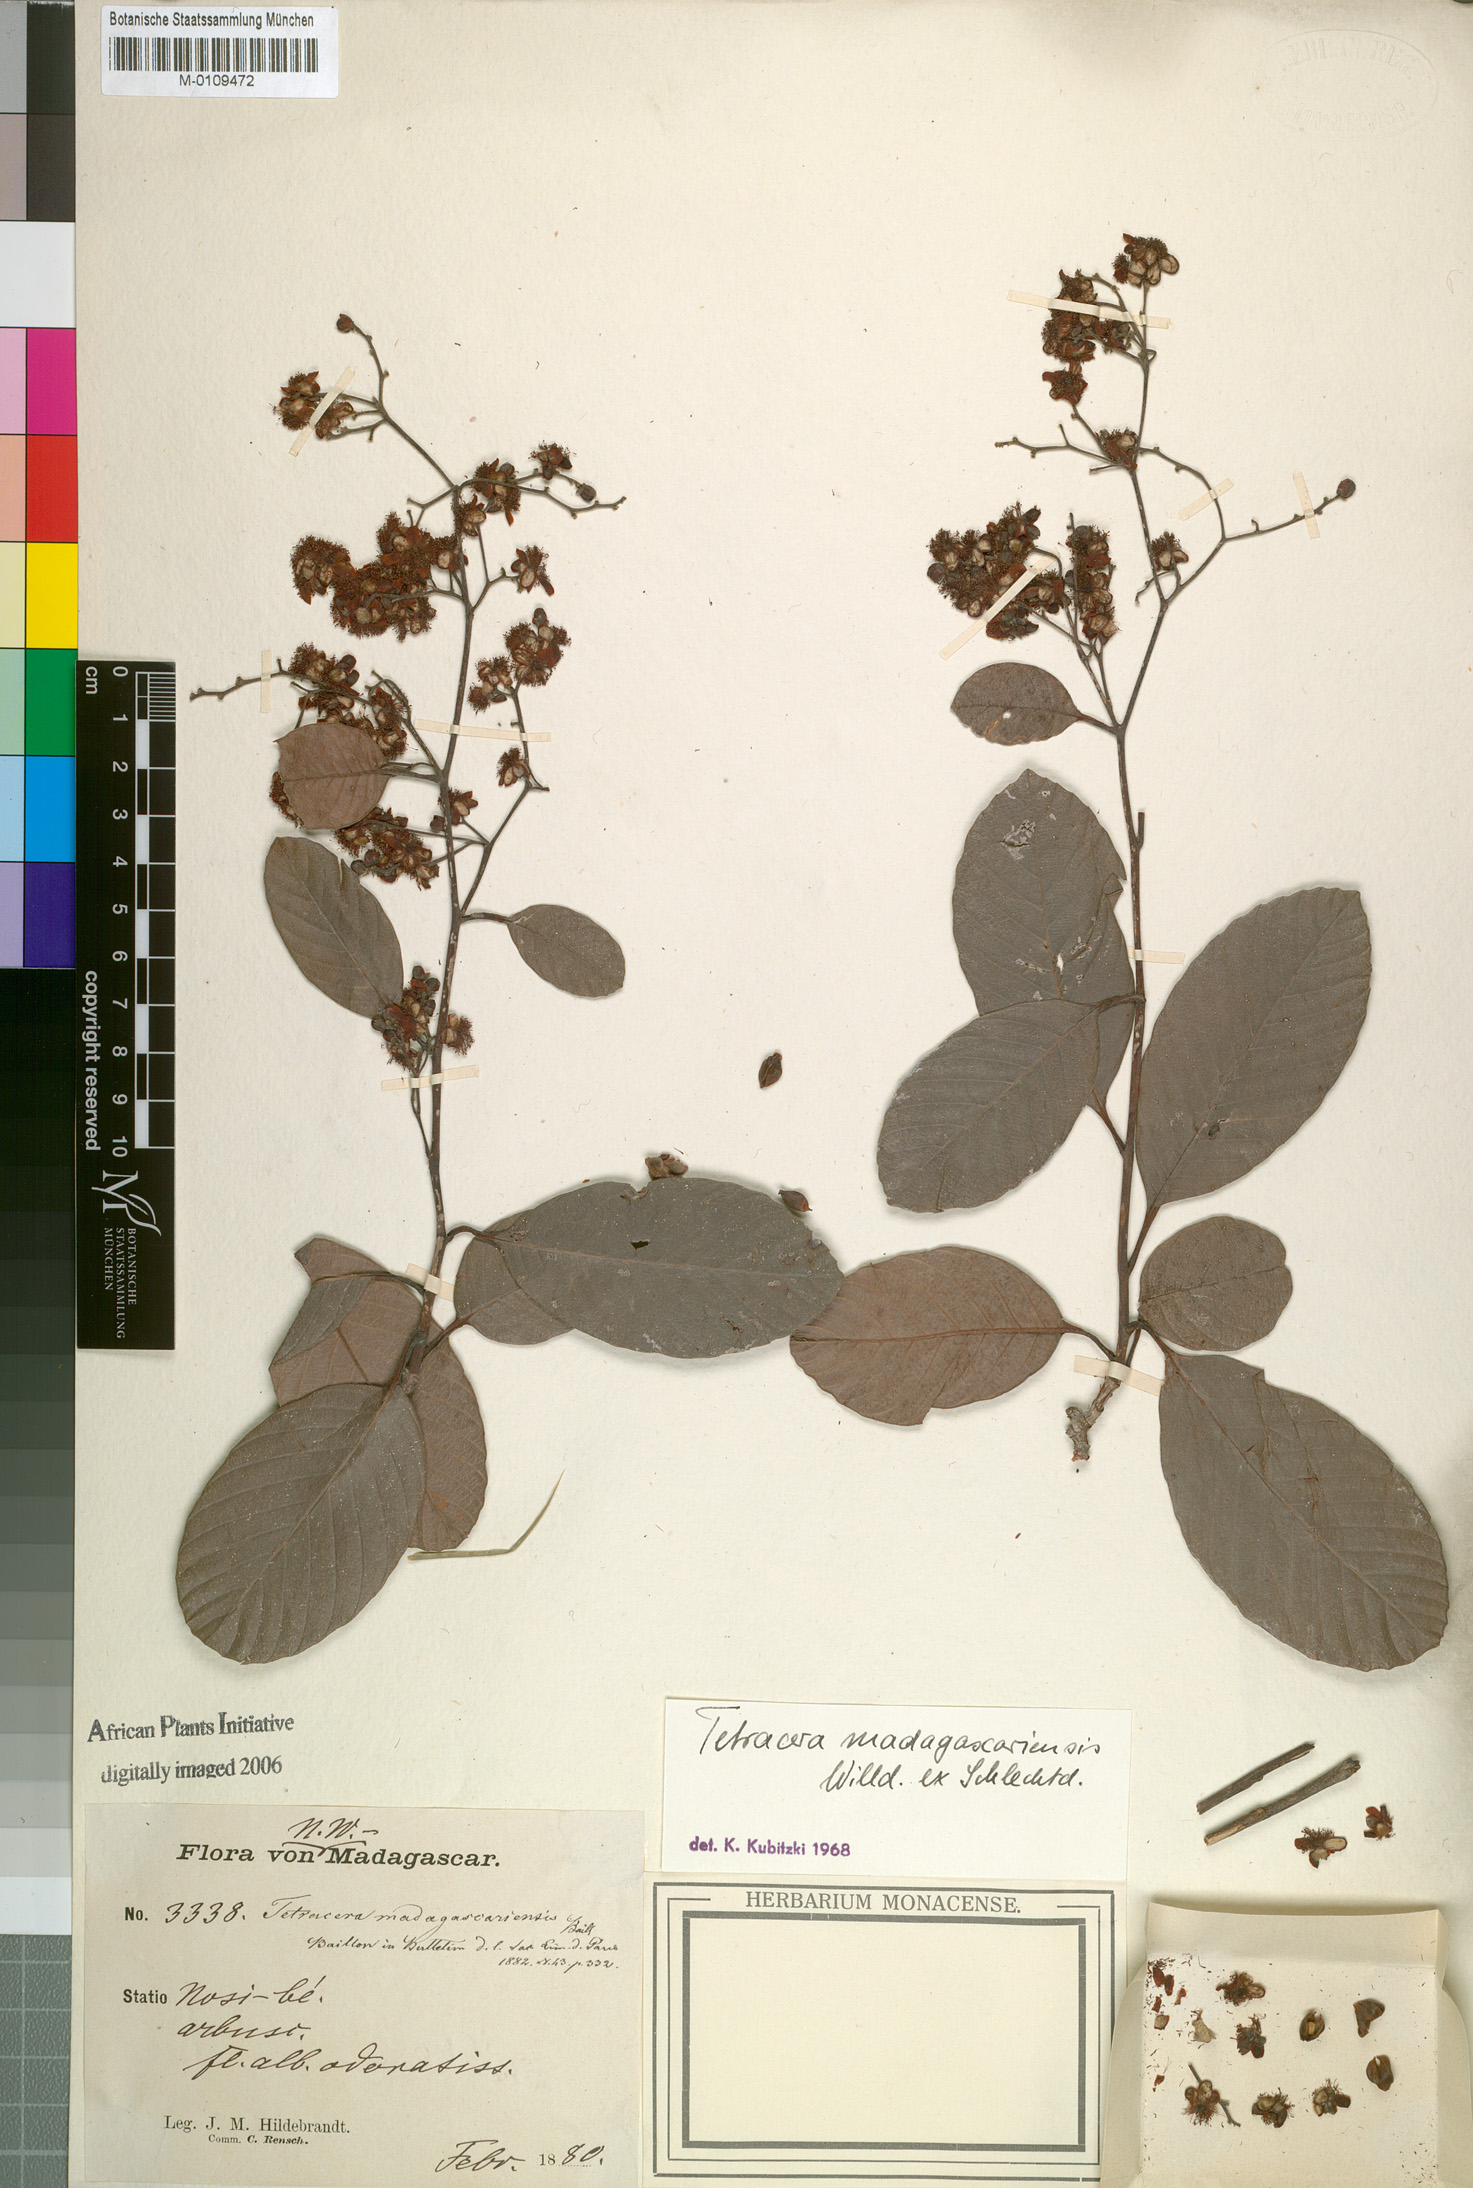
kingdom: Plantae
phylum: Tracheophyta
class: Magnoliopsida
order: Dilleniales
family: Dilleniaceae
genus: Tetracera
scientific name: Tetracera madagascariensis
